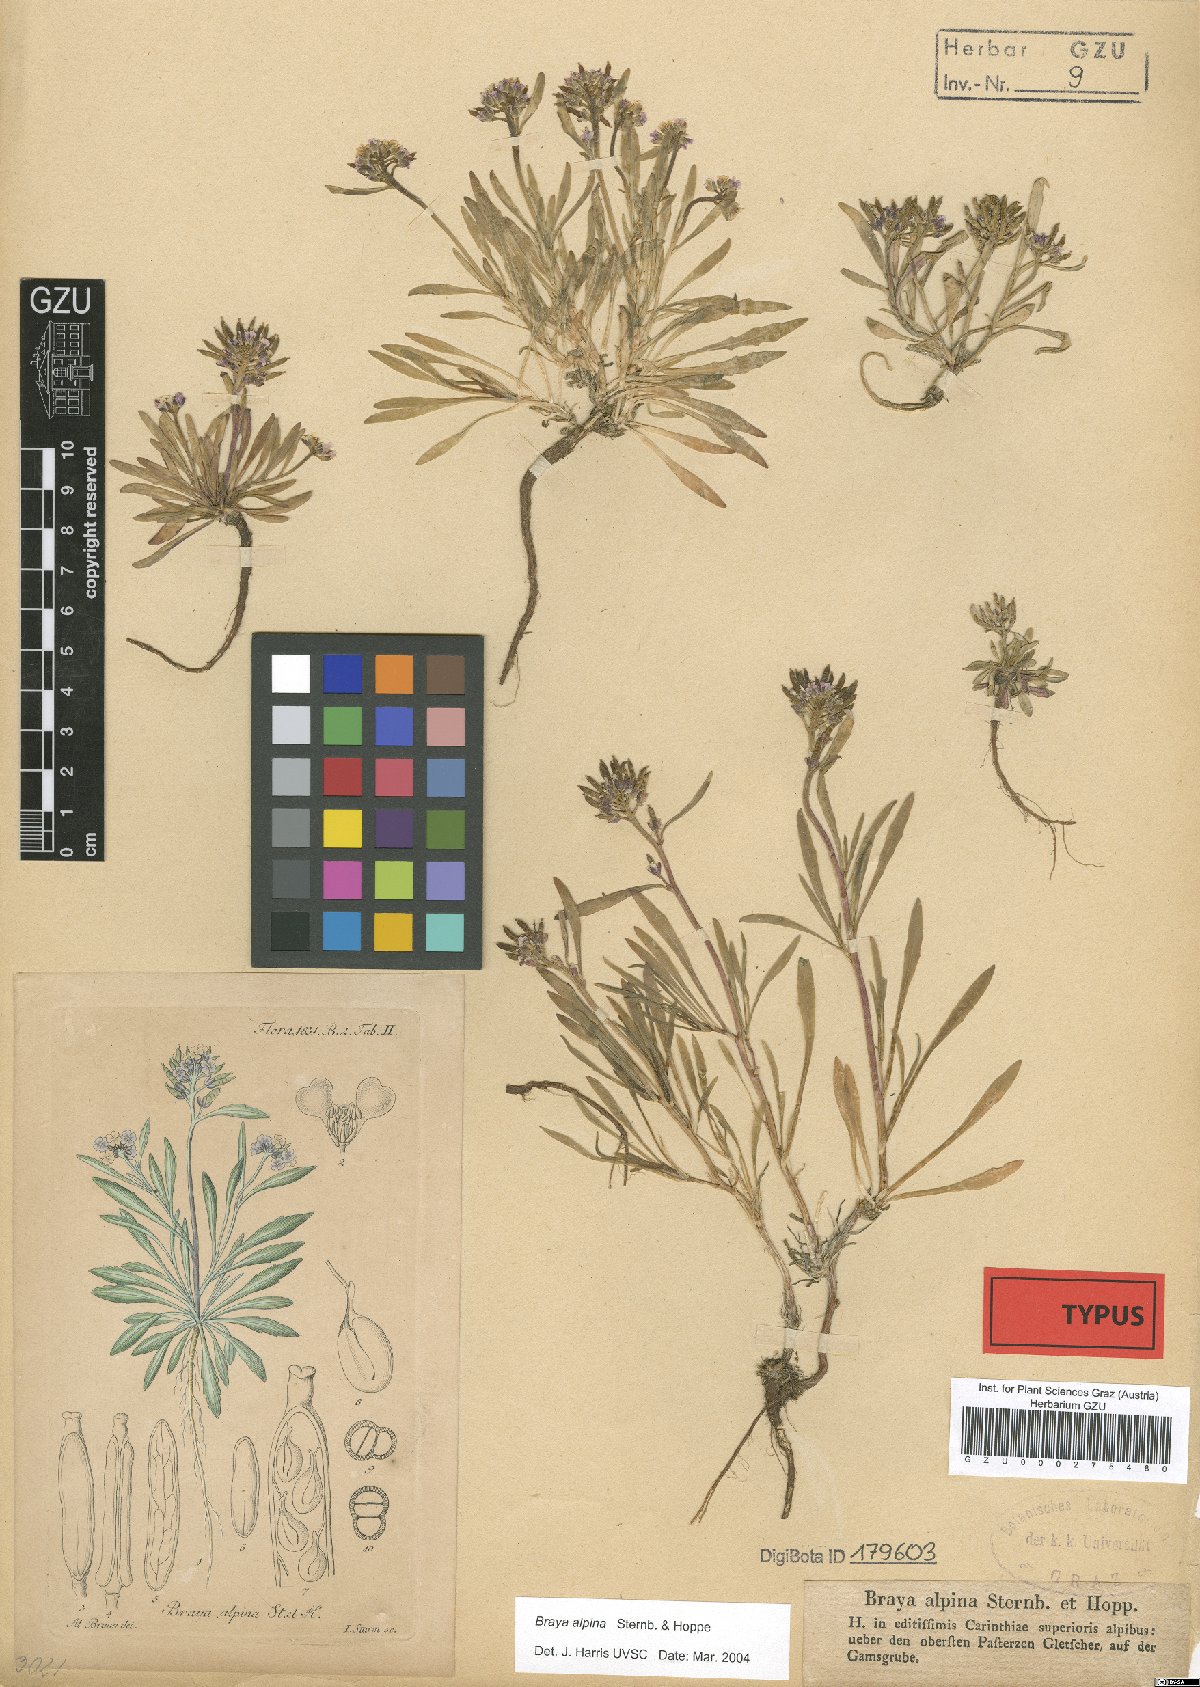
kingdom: Plantae
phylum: Tracheophyta
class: Magnoliopsida
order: Brassicales
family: Brassicaceae
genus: Braya
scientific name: Braya alpina
